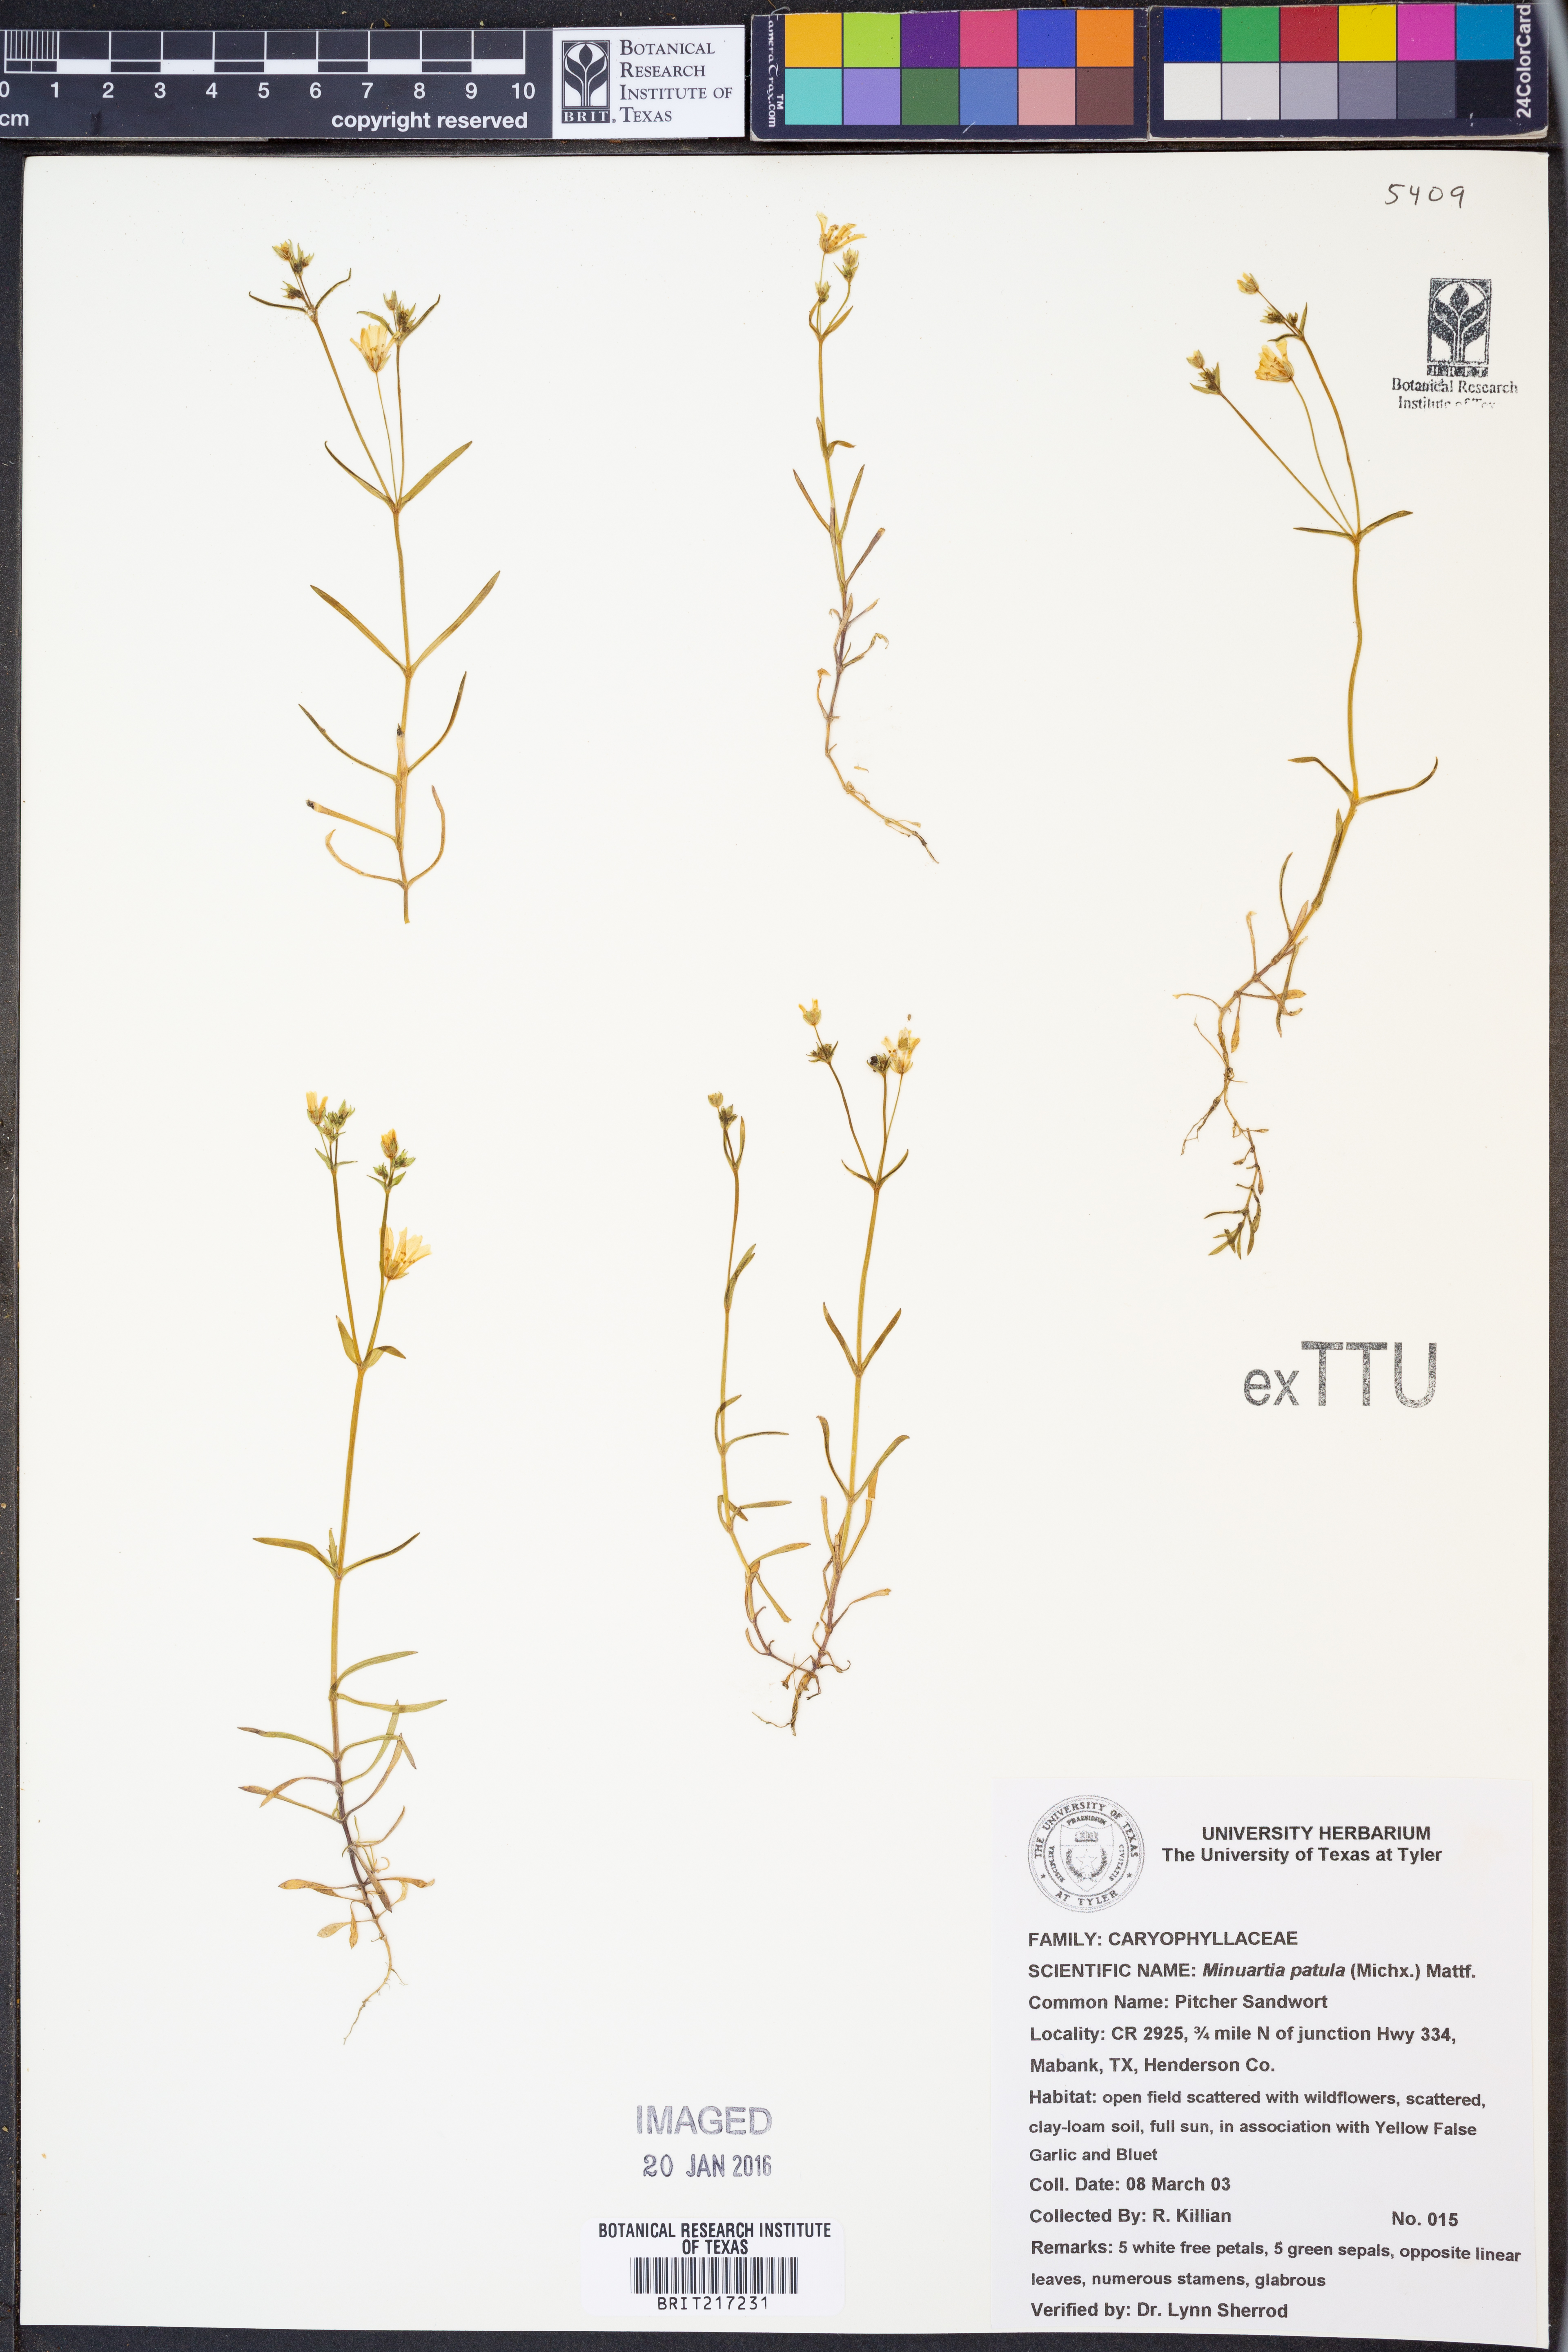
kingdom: Plantae
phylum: Tracheophyta
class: Magnoliopsida
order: Caryophyllales
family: Caryophyllaceae
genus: Mononeuria
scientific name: Mononeuria patula
